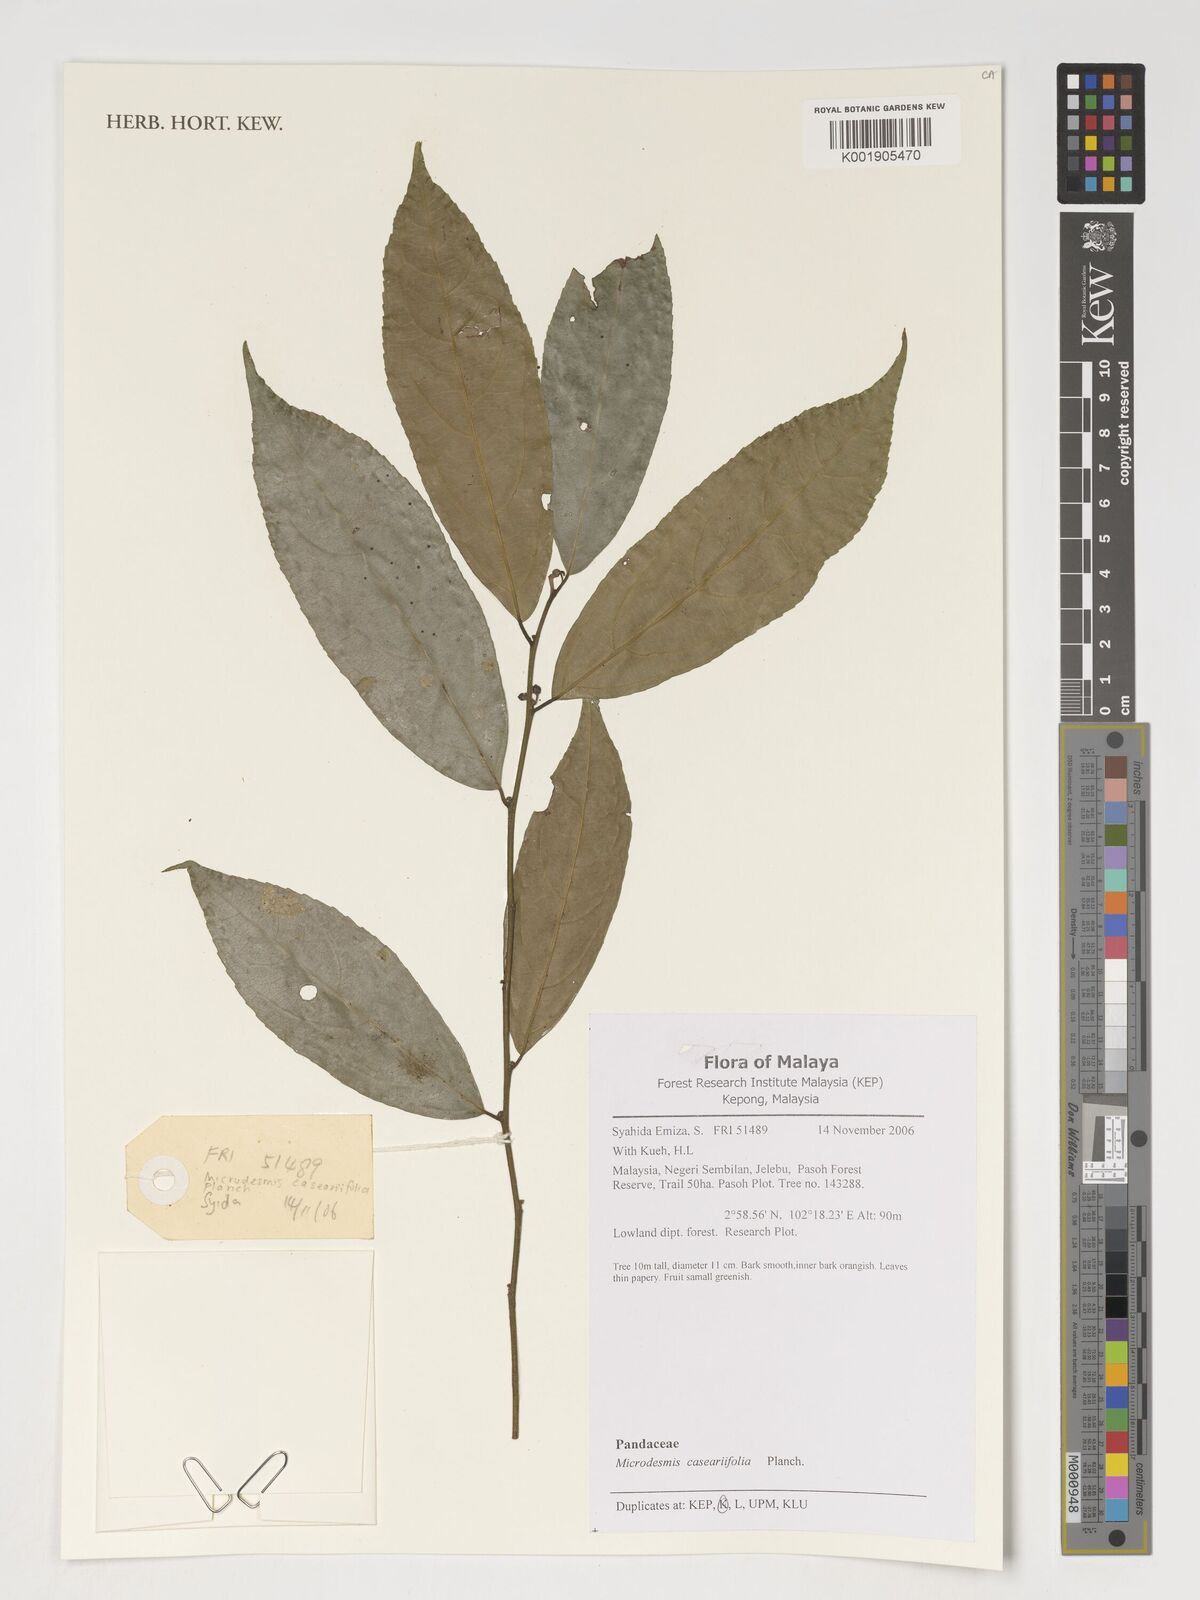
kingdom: Plantae
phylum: Tracheophyta
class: Magnoliopsida
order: Malpighiales
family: Pandaceae
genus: Microdesmis
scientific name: Microdesmis caseariifolia
